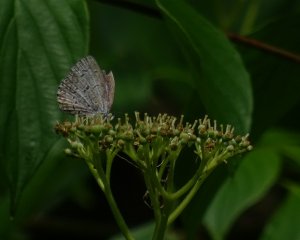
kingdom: Animalia
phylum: Arthropoda
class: Insecta
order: Lepidoptera
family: Lycaenidae
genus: Celastrina
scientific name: Celastrina lucia
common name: Northern Spring Azure
